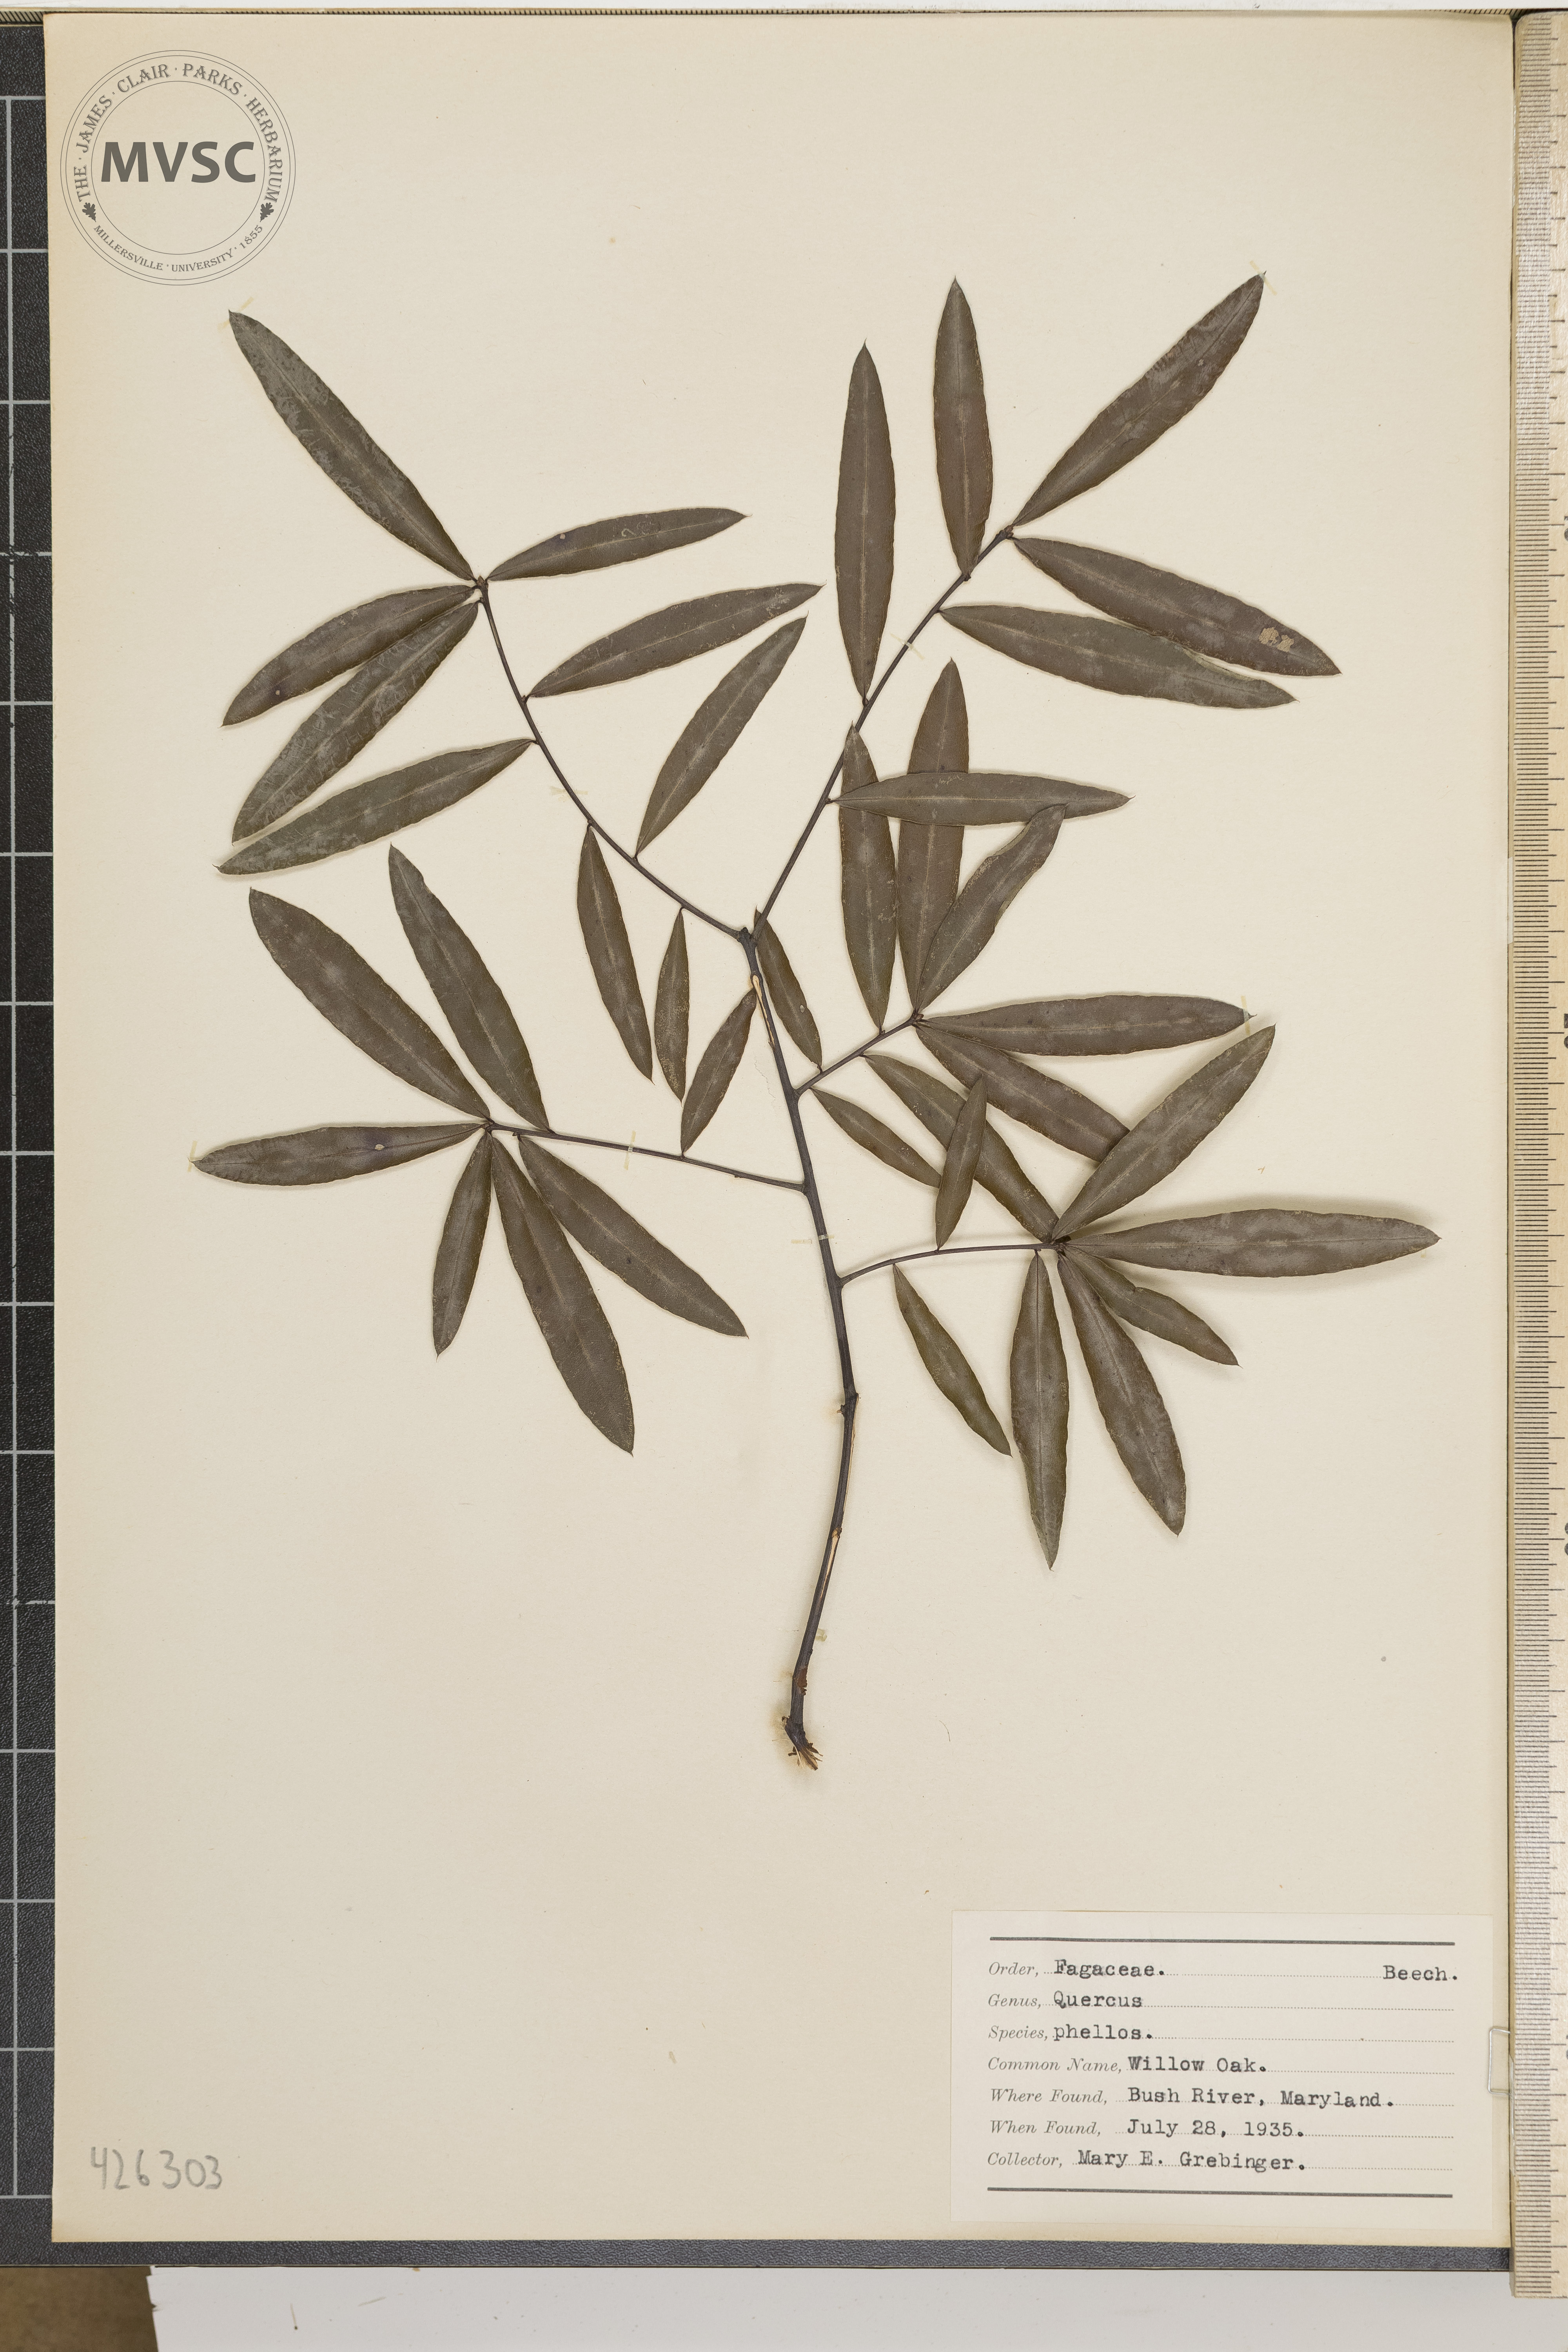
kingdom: Plantae
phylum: Tracheophyta
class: Magnoliopsida
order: Fagales
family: Fagaceae
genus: Quercus
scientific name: Quercus phellos
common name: Willow Oak
